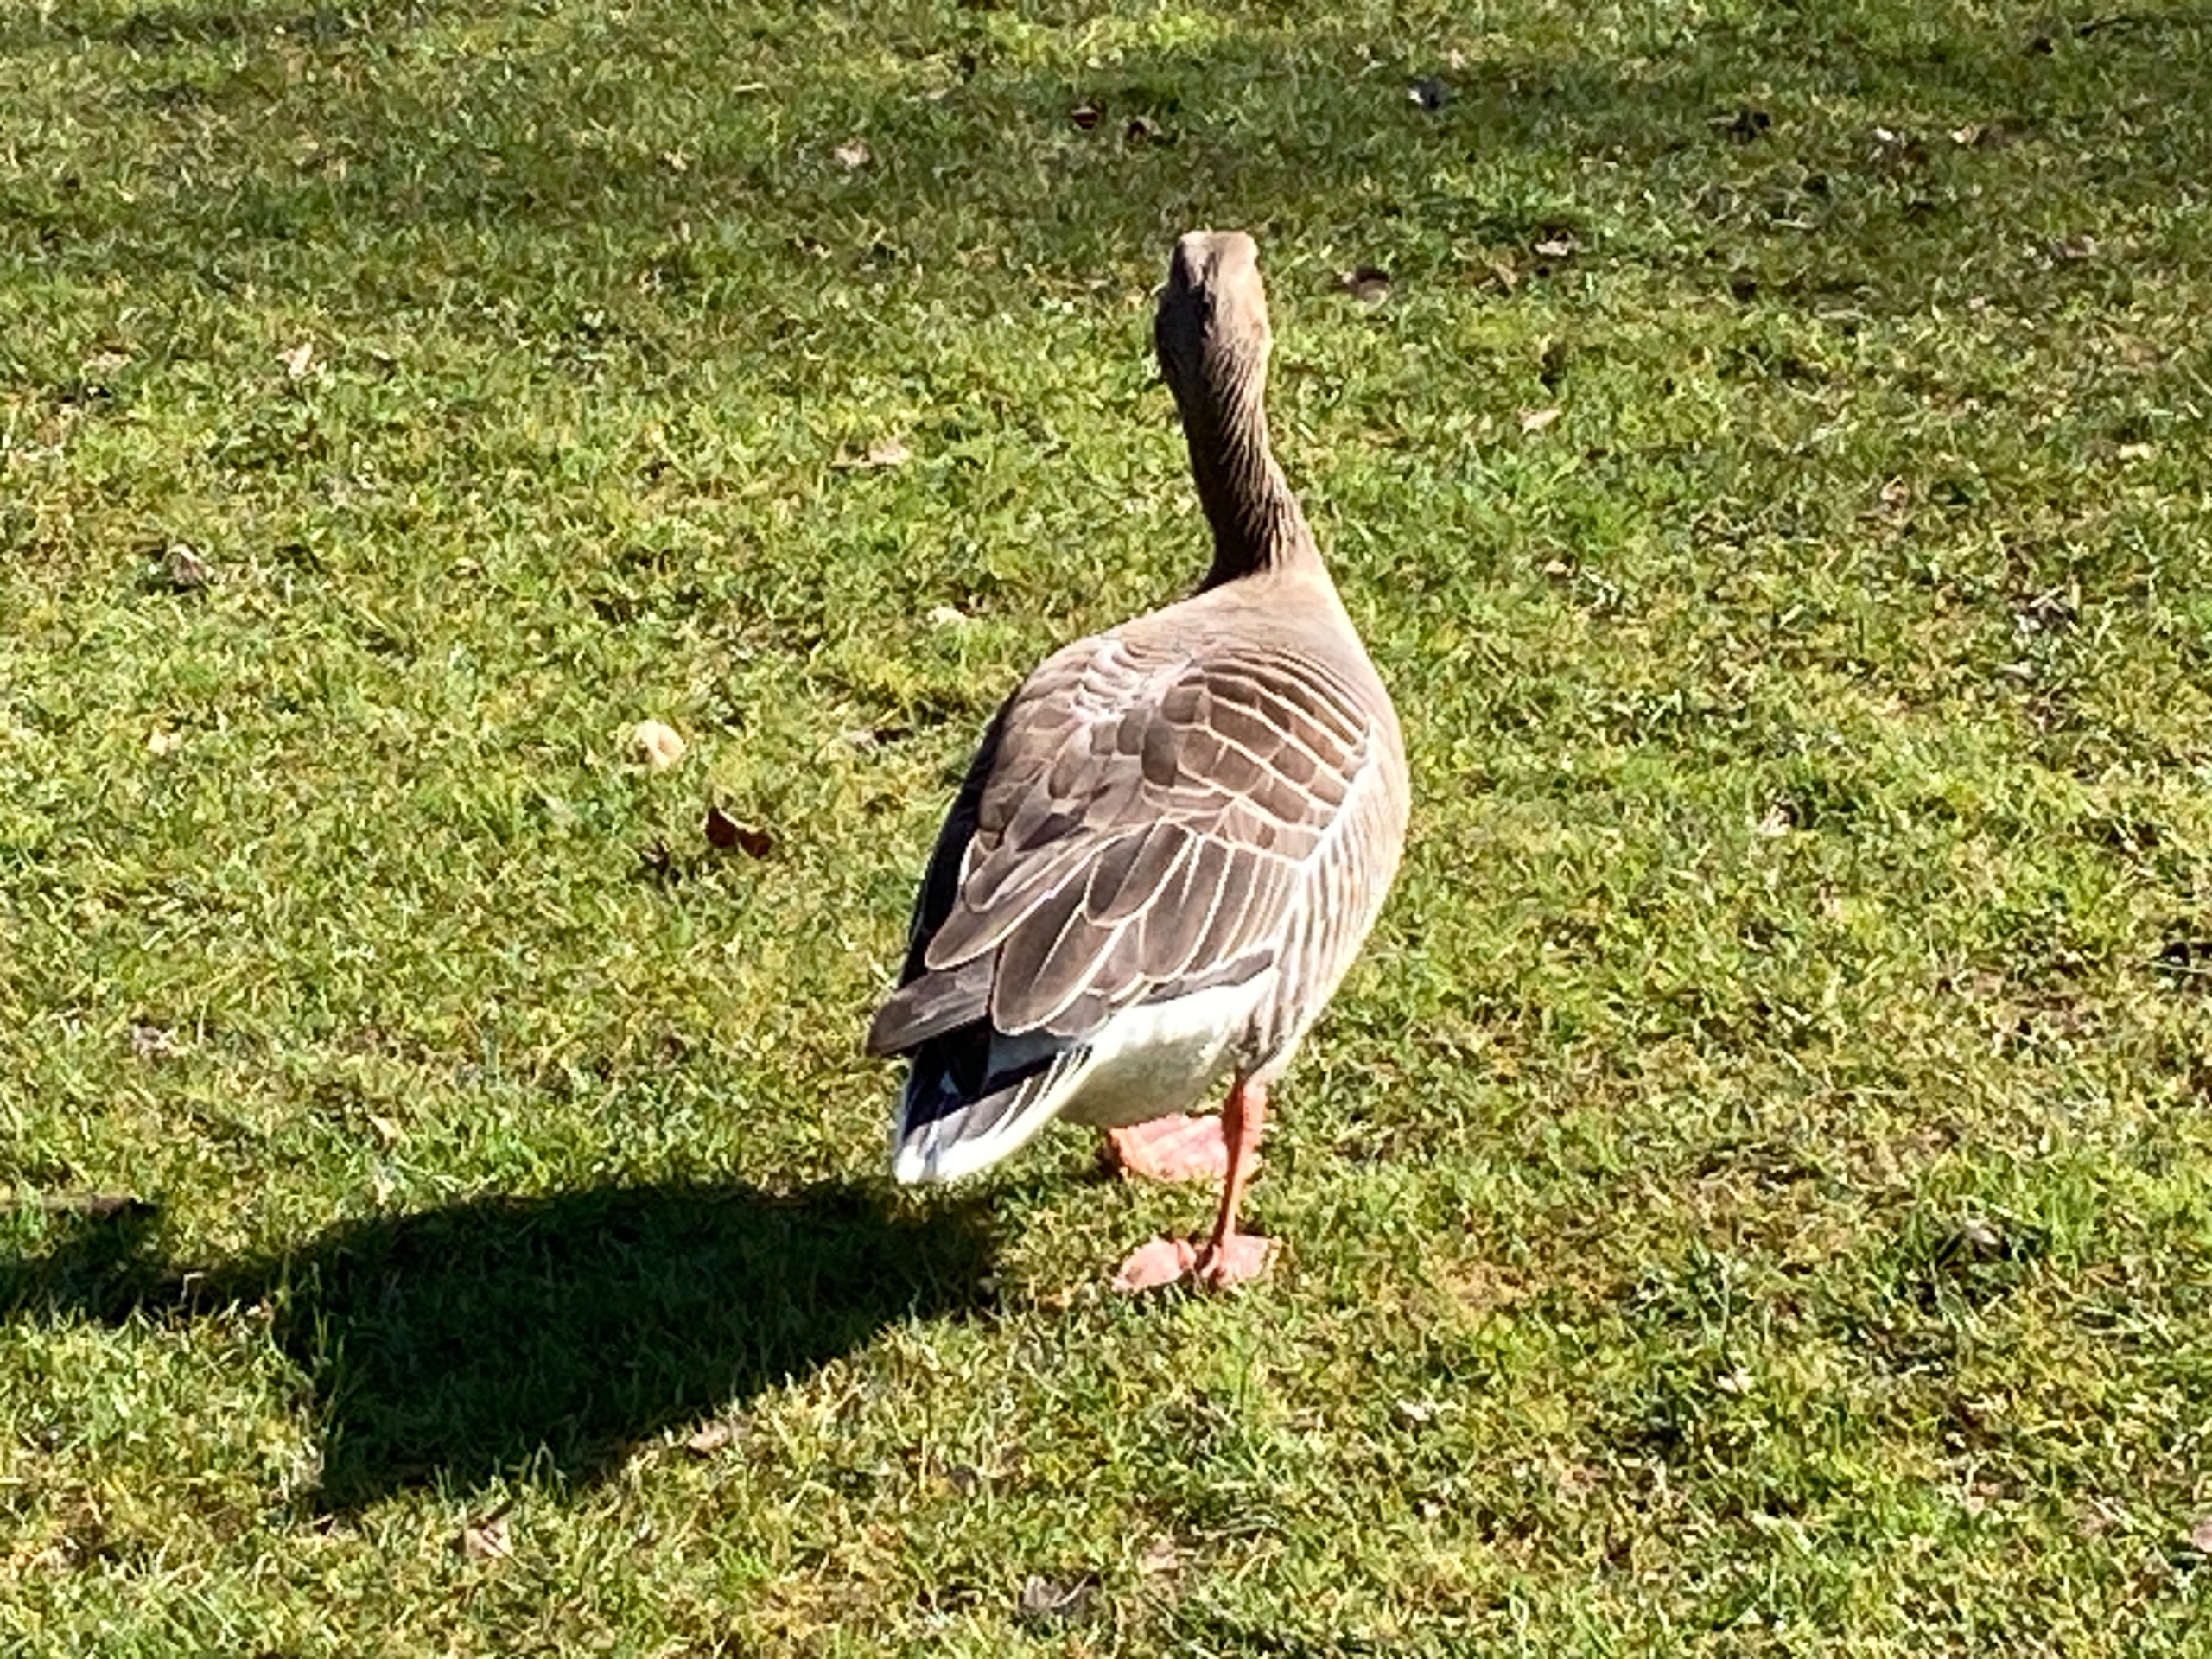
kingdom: Animalia
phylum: Chordata
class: Aves
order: Anseriformes
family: Anatidae
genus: Anser
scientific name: Anser anser
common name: Grågås
